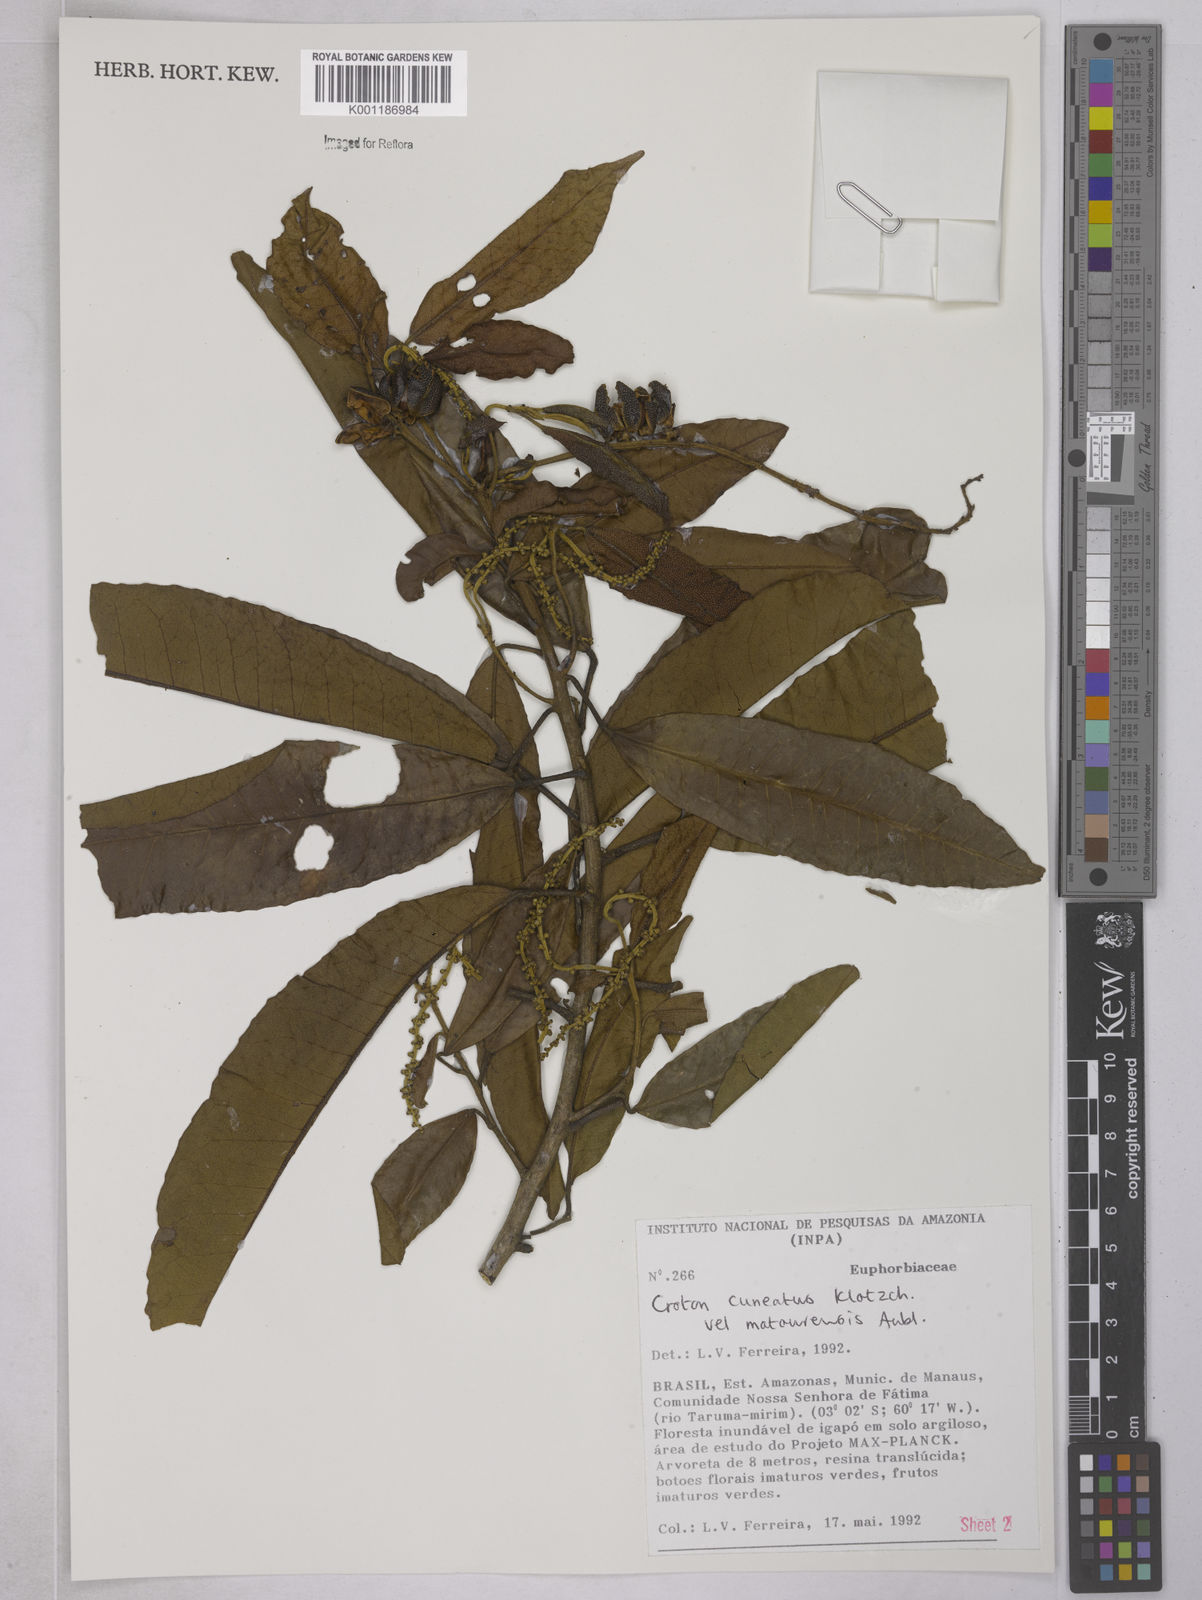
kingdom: Plantae
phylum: Tracheophyta
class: Magnoliopsida
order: Malpighiales
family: Euphorbiaceae
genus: Croton
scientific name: Croton
